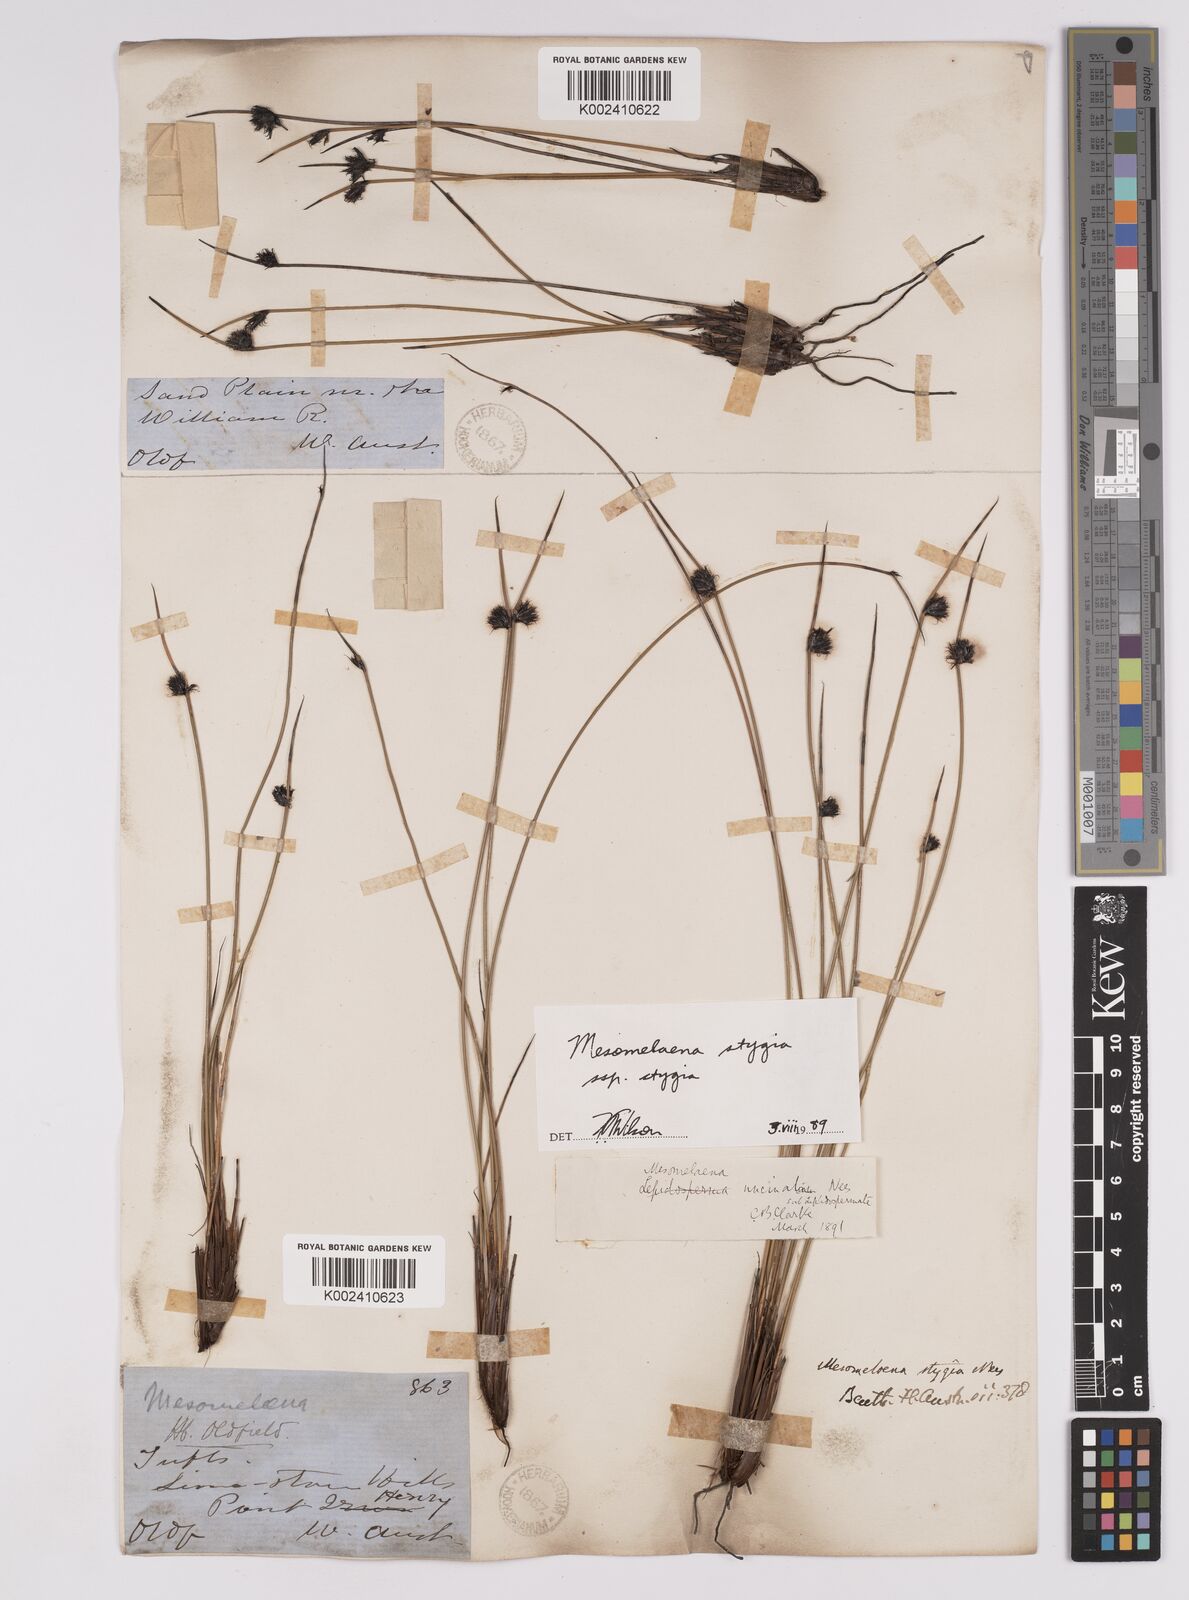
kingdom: Plantae
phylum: Tracheophyta
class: Liliopsida
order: Poales
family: Cyperaceae
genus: Mesomelaena
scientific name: Mesomelaena stygia
